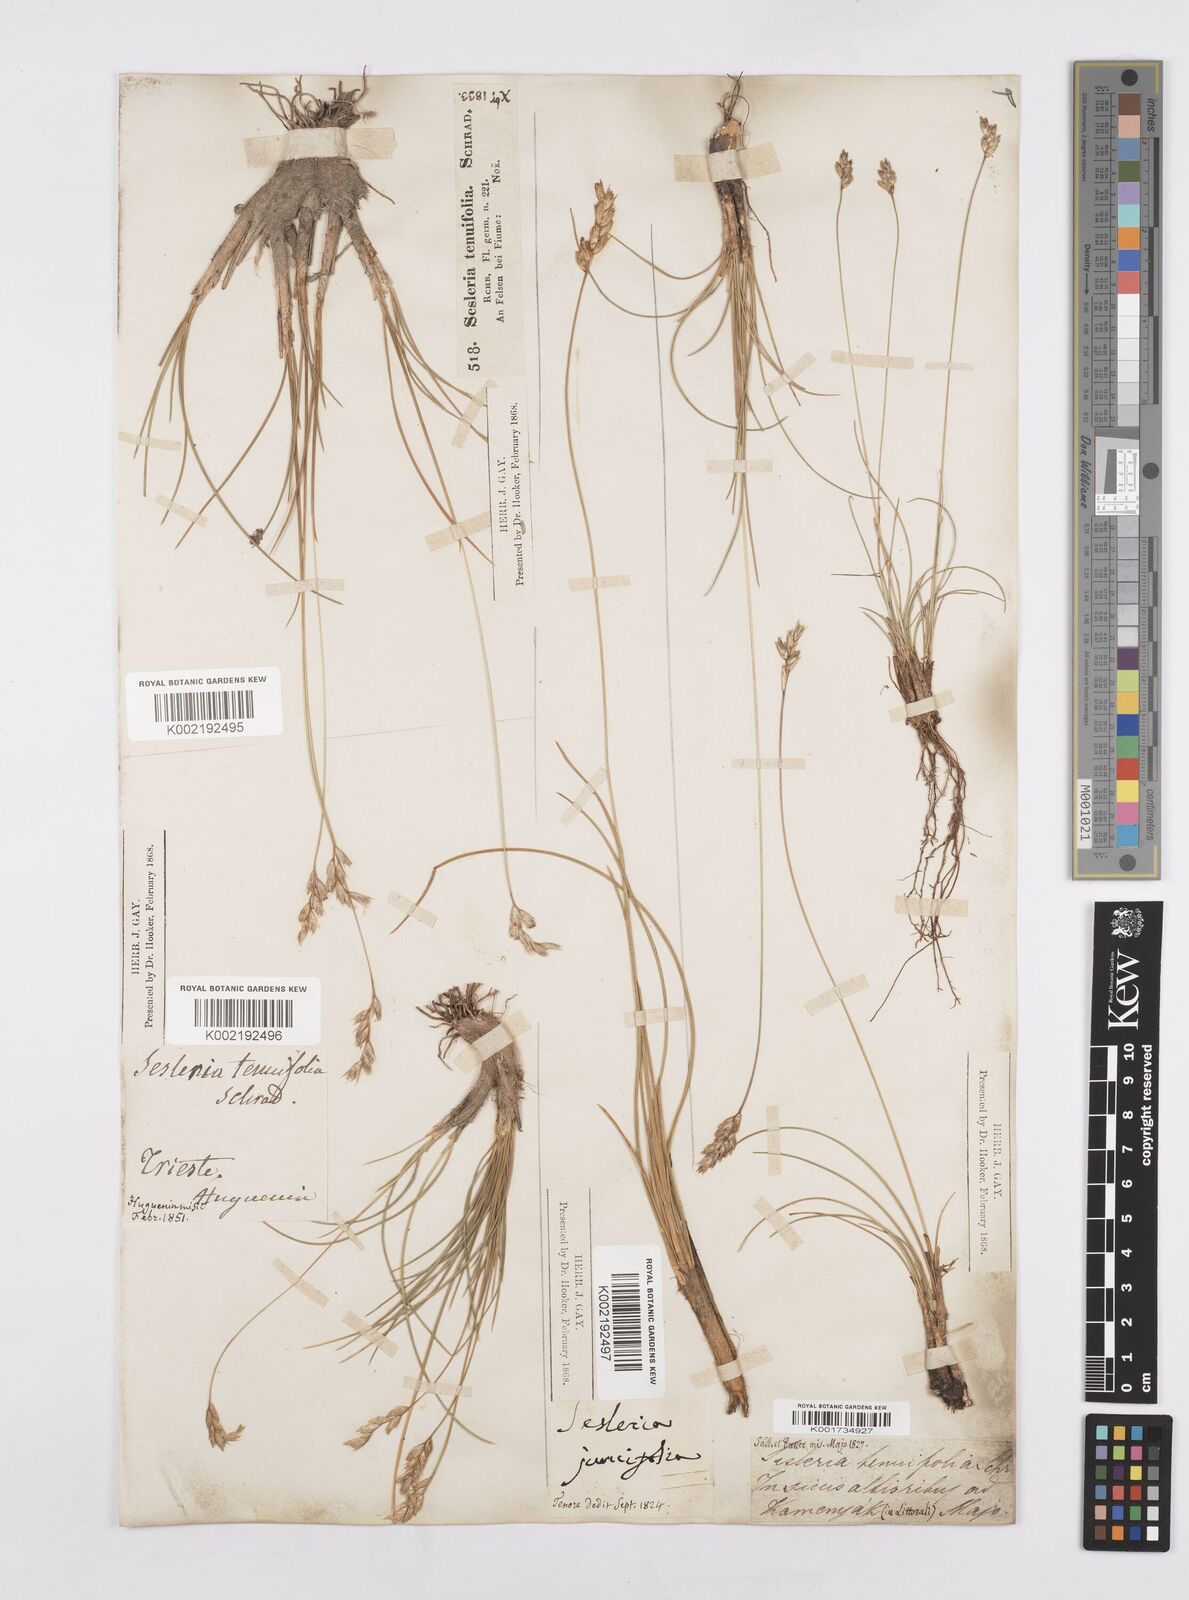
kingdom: Plantae
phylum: Tracheophyta
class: Liliopsida
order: Poales
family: Poaceae
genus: Sesleria
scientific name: Sesleria juncifolia
